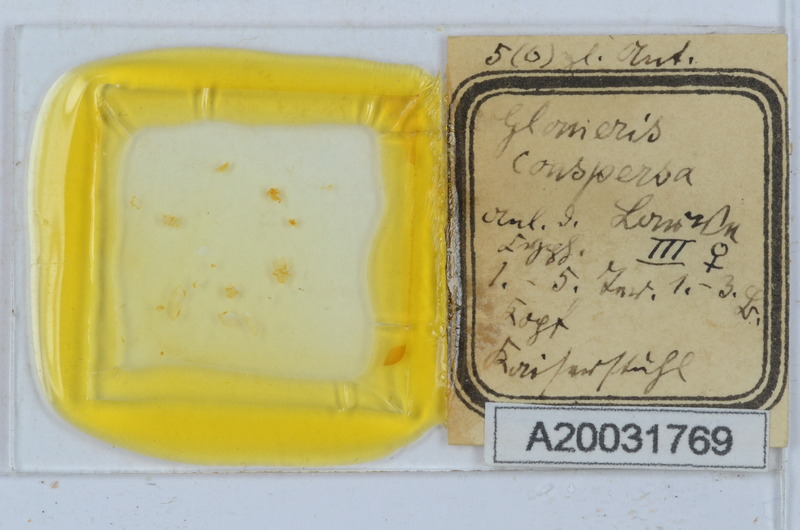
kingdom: Animalia
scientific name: Animalia
